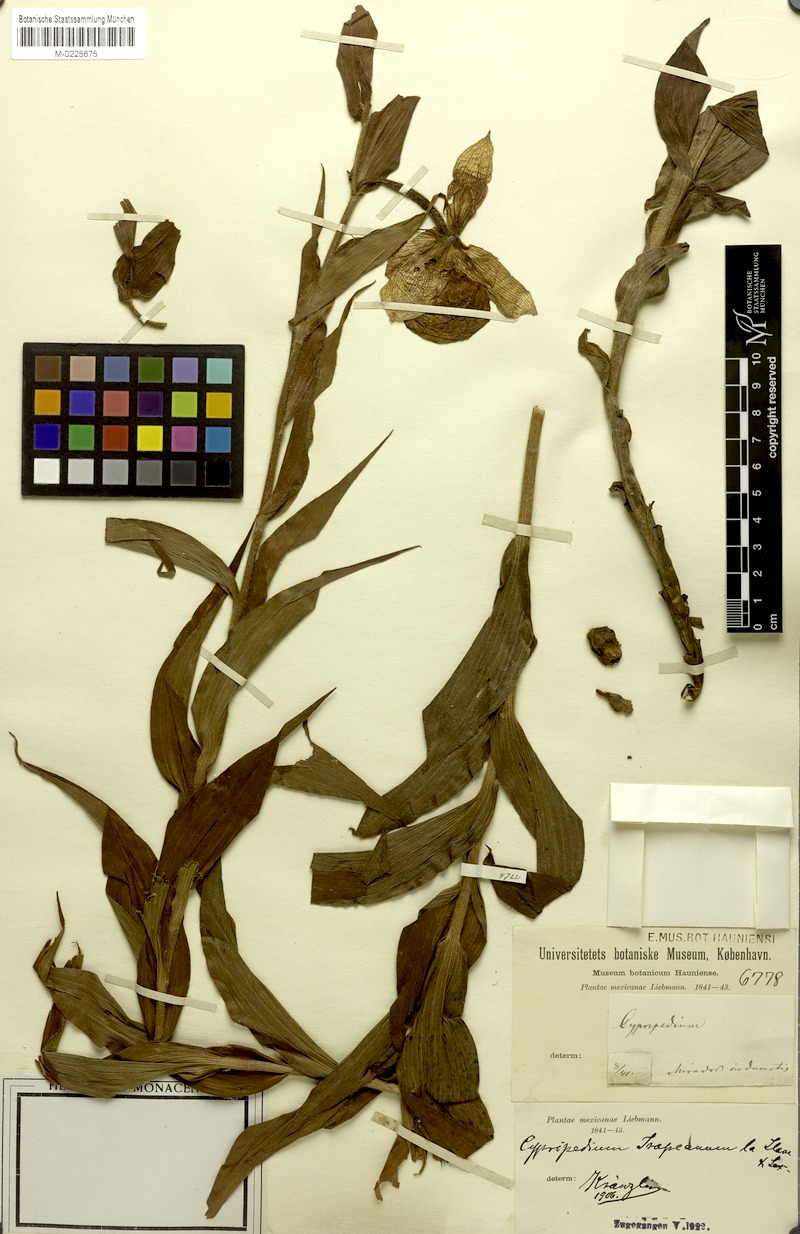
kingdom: Plantae
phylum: Tracheophyta
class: Liliopsida
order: Asparagales
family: Orchidaceae
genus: Cypripedium
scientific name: Cypripedium irapeanum
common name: Irapeao cypripedium
